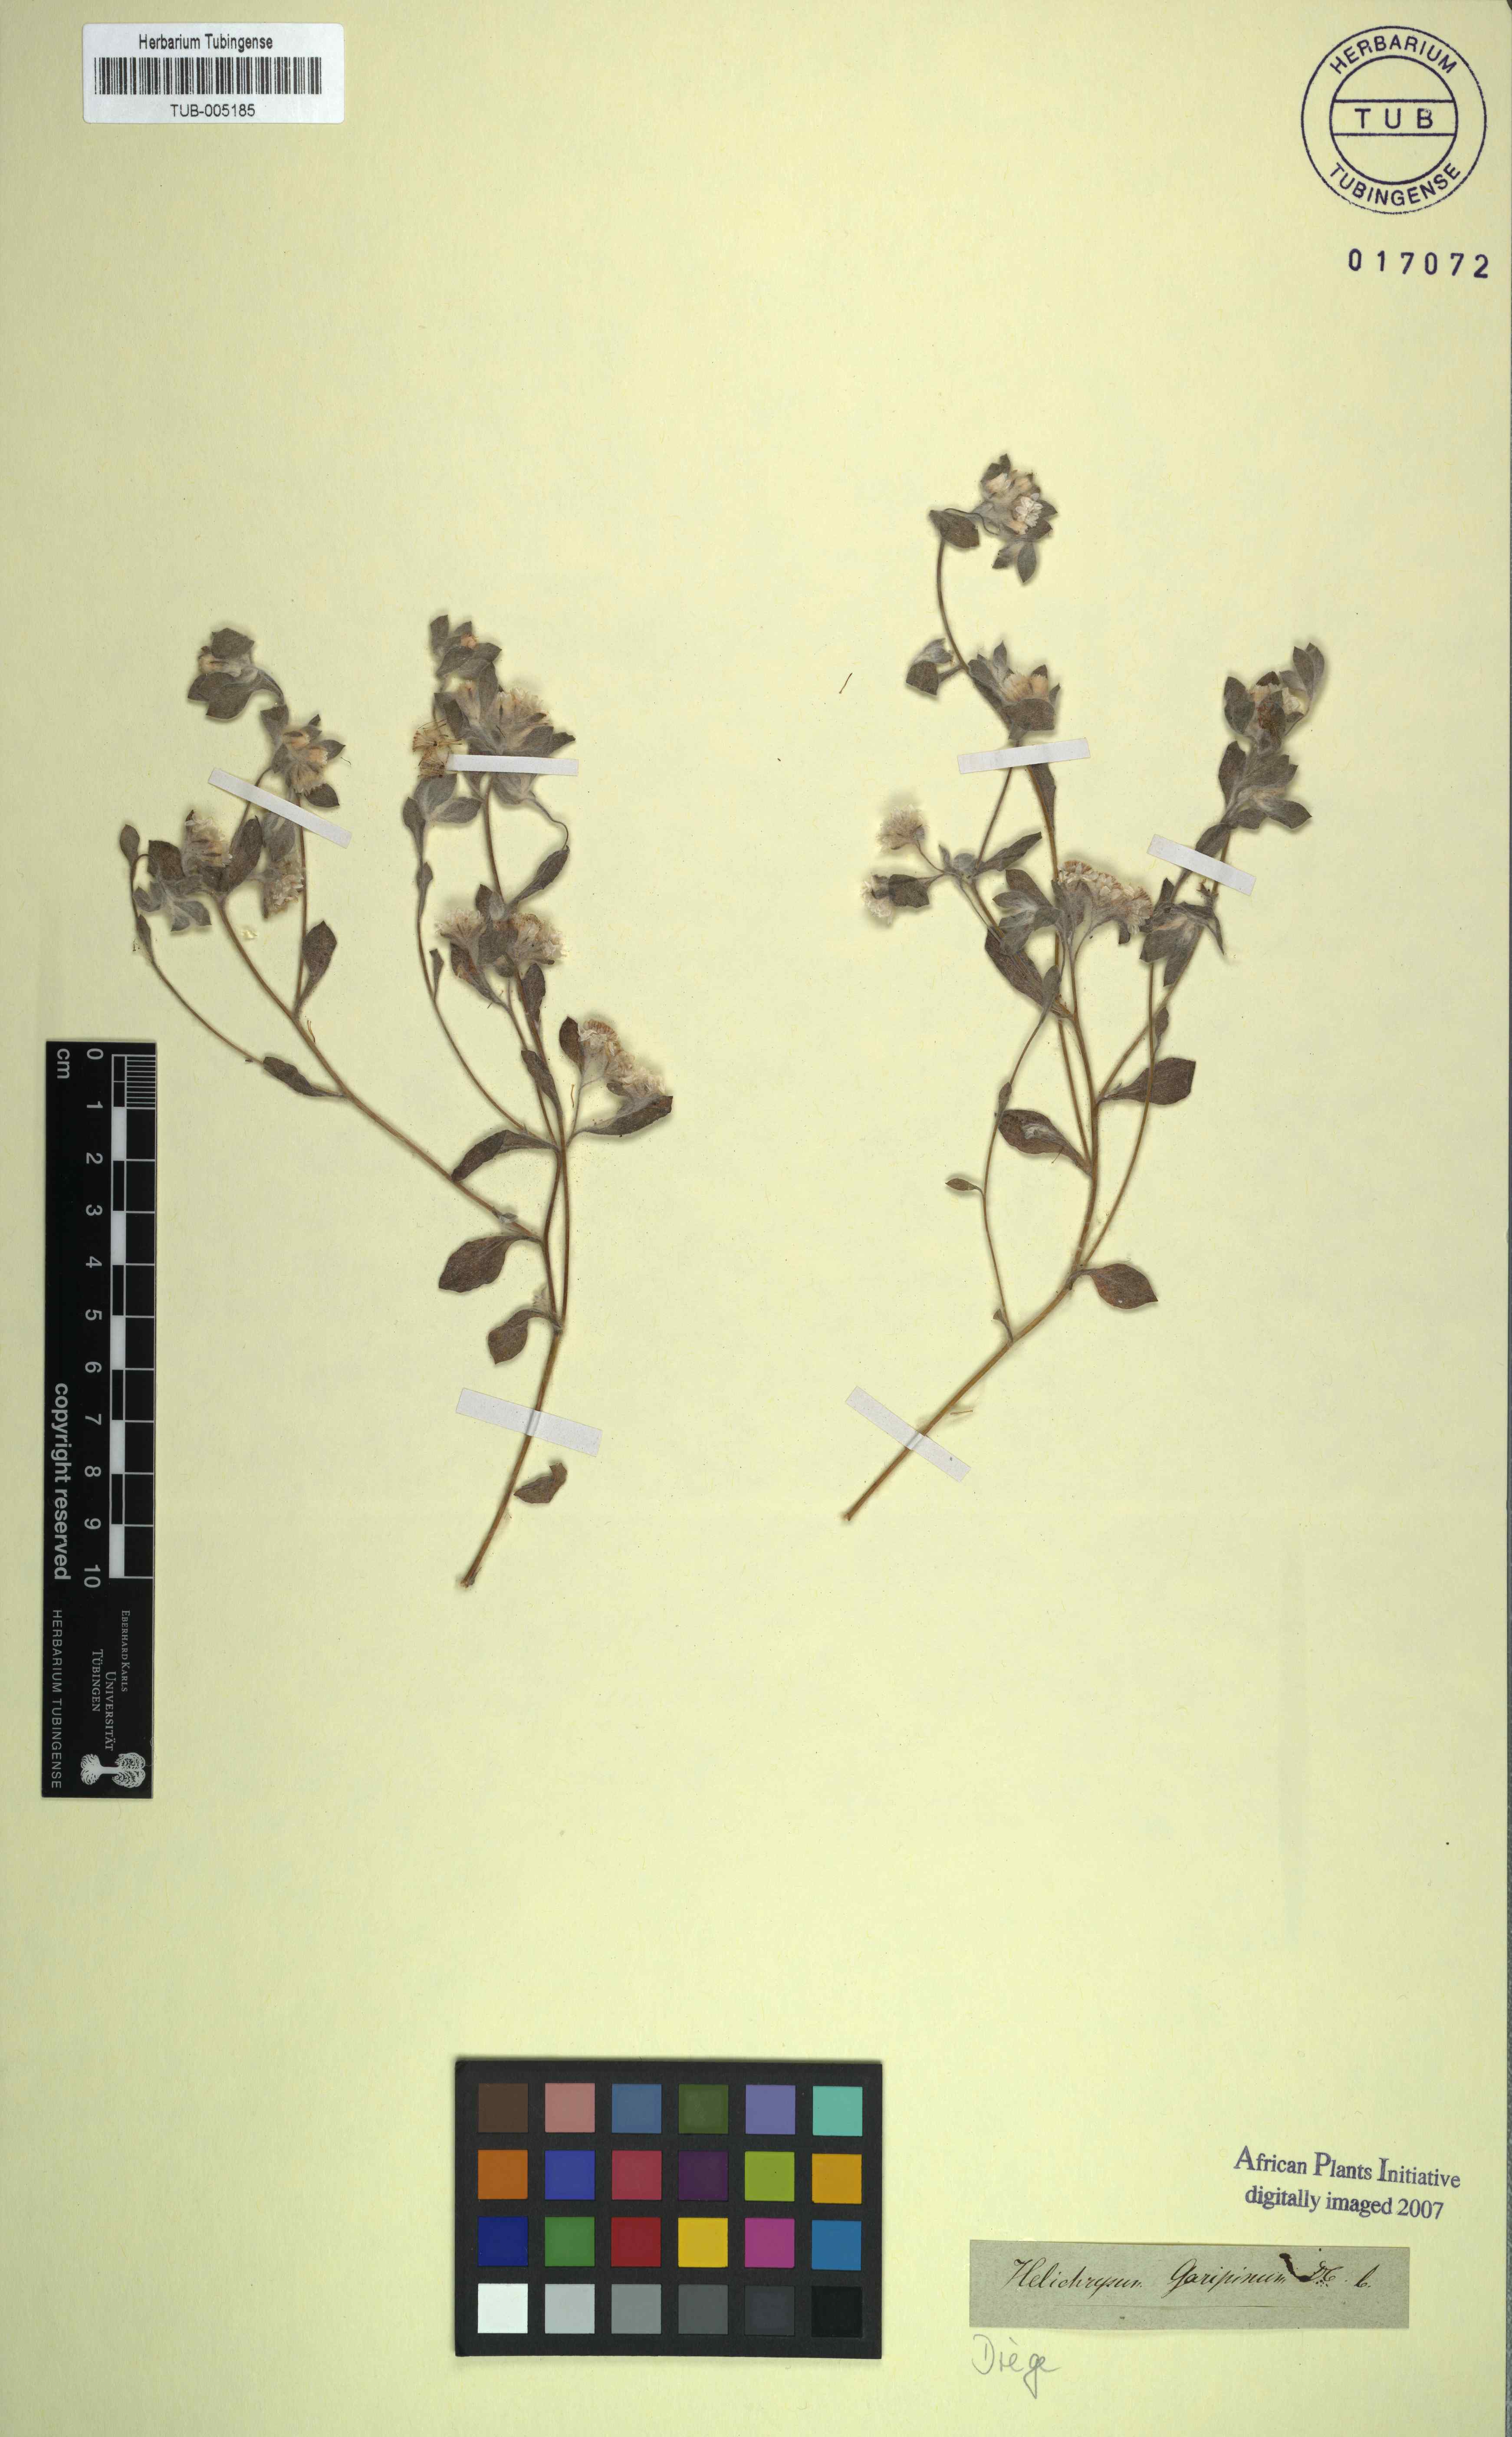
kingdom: Plantae
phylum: Tracheophyta
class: Magnoliopsida
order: Asterales
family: Asteraceae
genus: Helichrysum
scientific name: Helichrysum gariepinum
